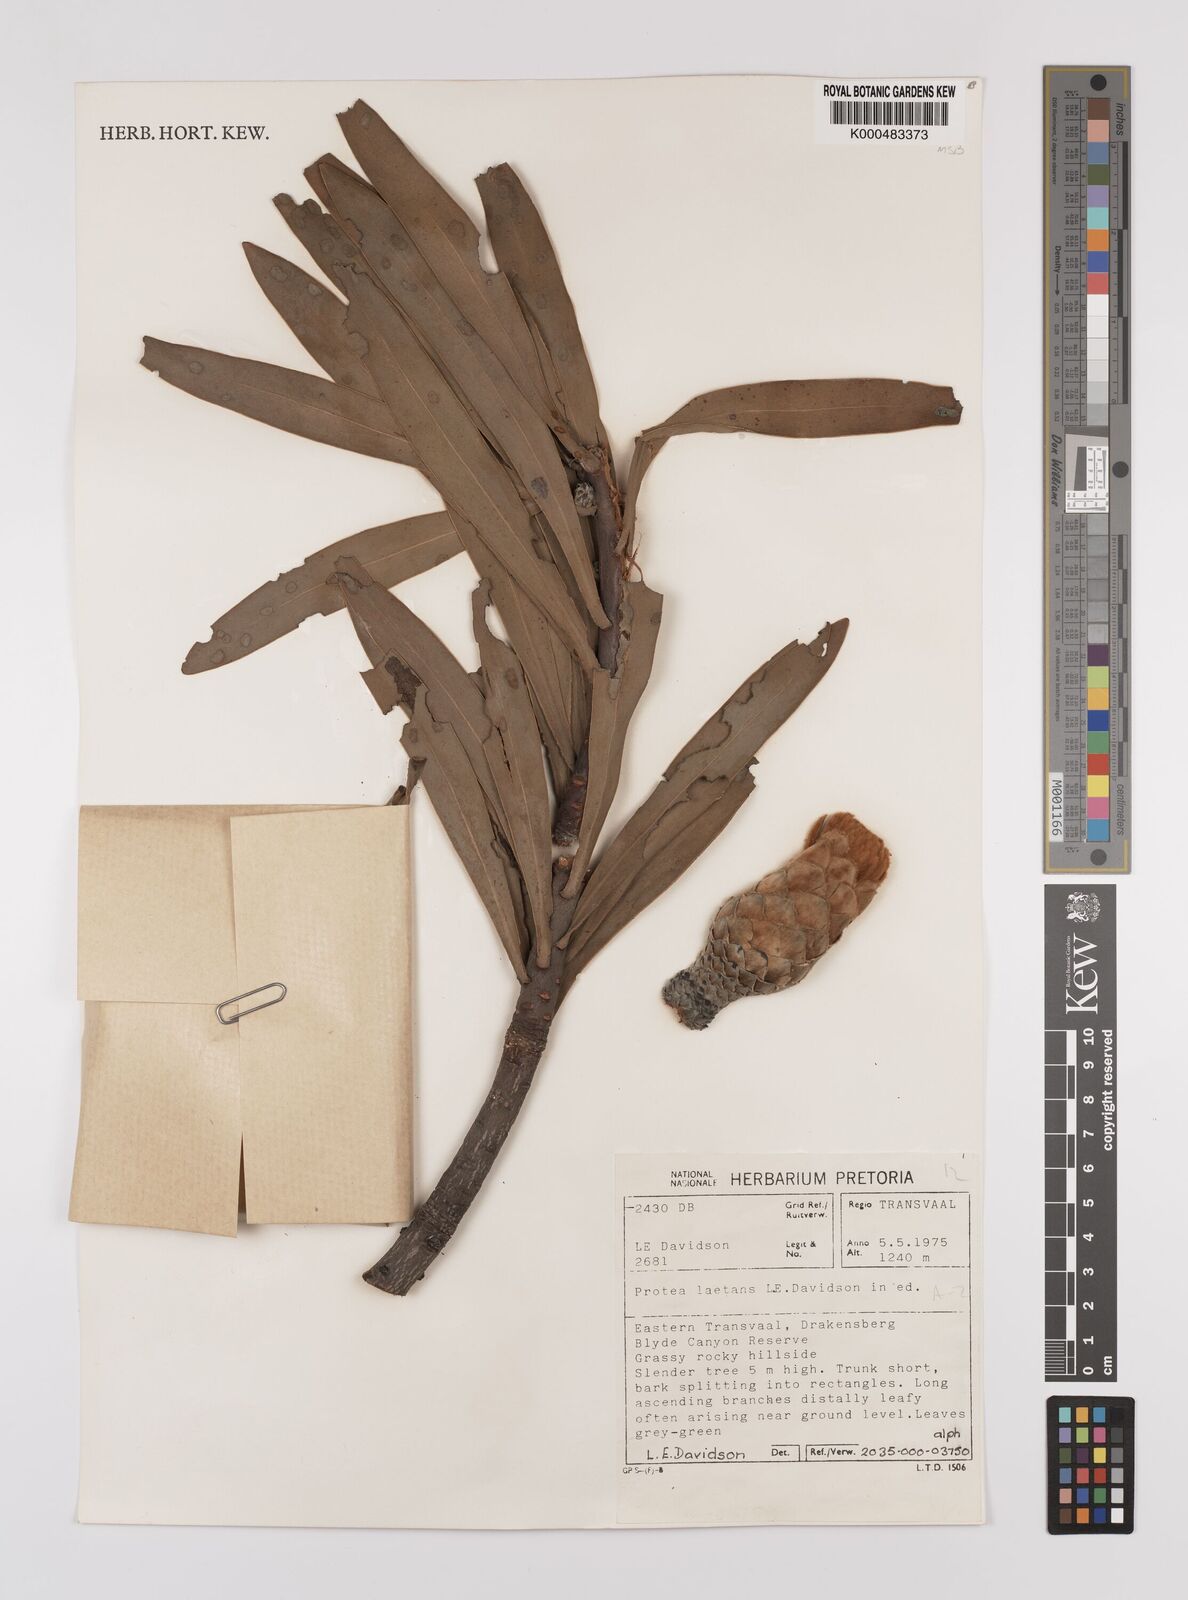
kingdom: Plantae
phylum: Tracheophyta
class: Magnoliopsida
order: Proteales
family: Proteaceae
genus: Protea
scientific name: Protea laetans
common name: Blyde protea
